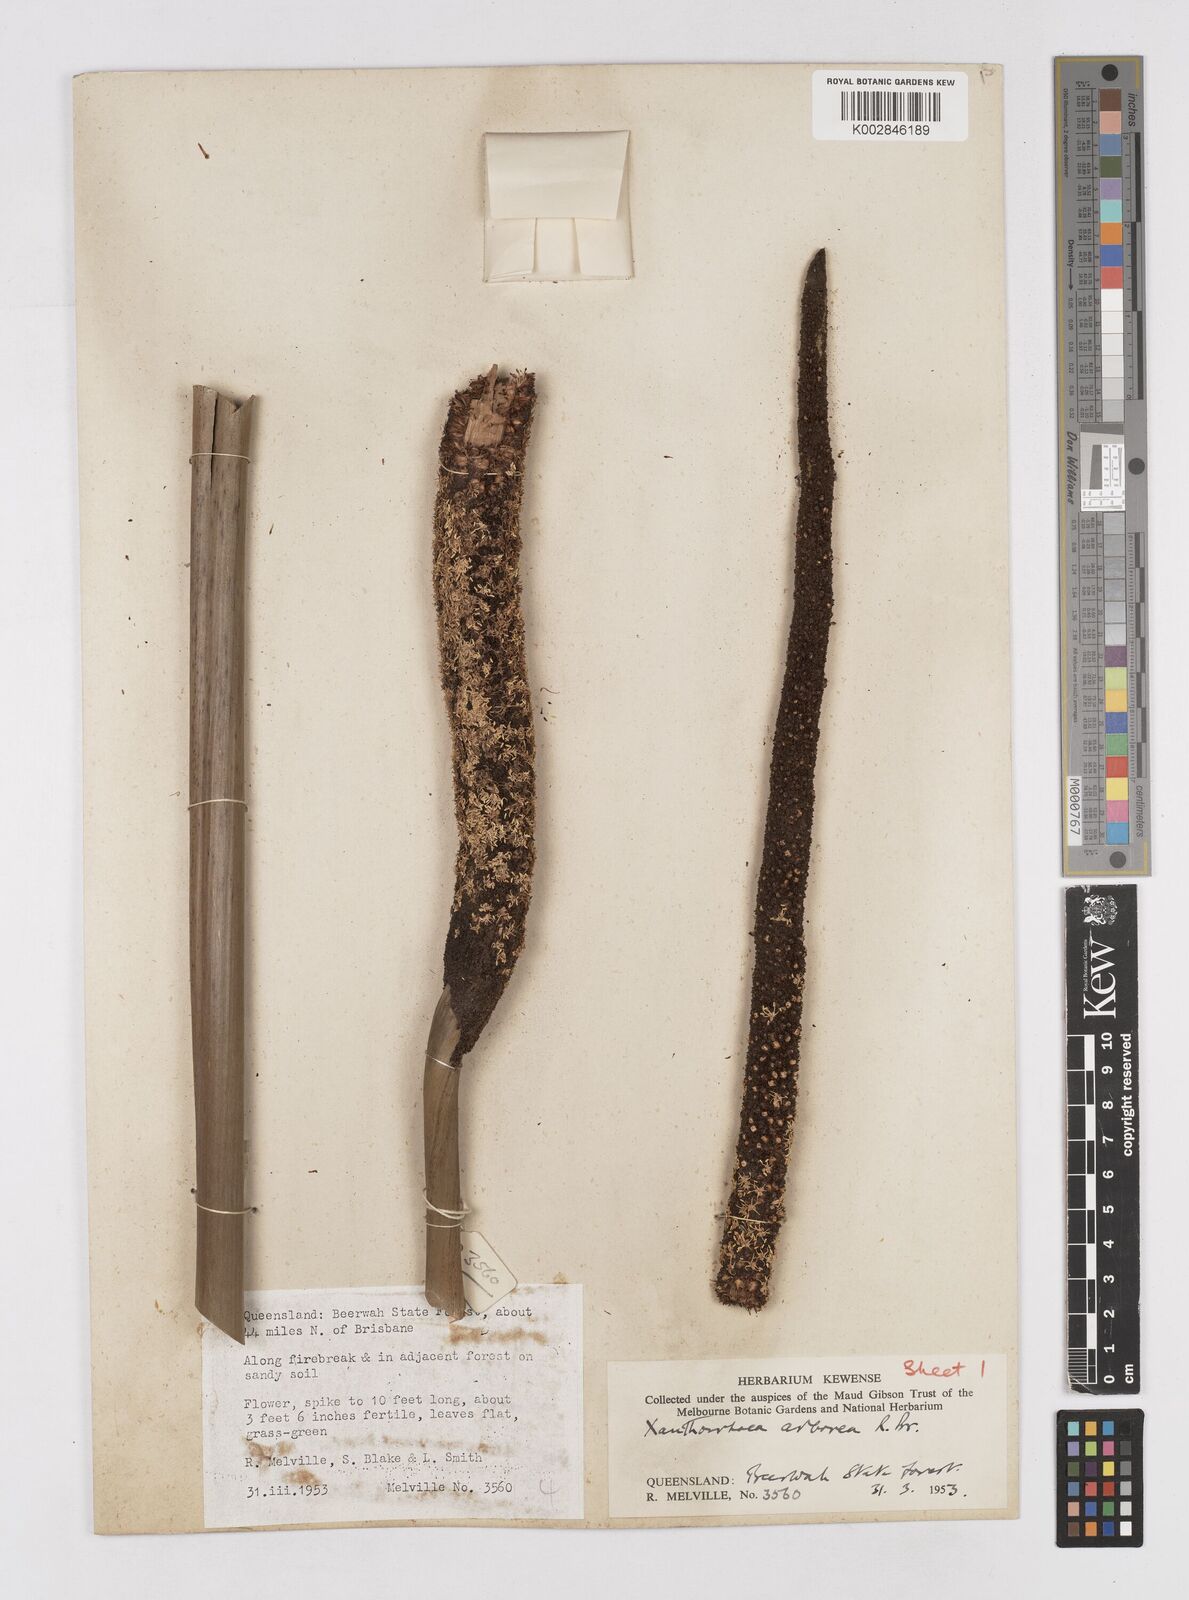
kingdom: Plantae
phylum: Tracheophyta
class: Liliopsida
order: Asparagales
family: Asphodelaceae
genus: Xanthorrhoea
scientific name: Xanthorrhoea arborea
